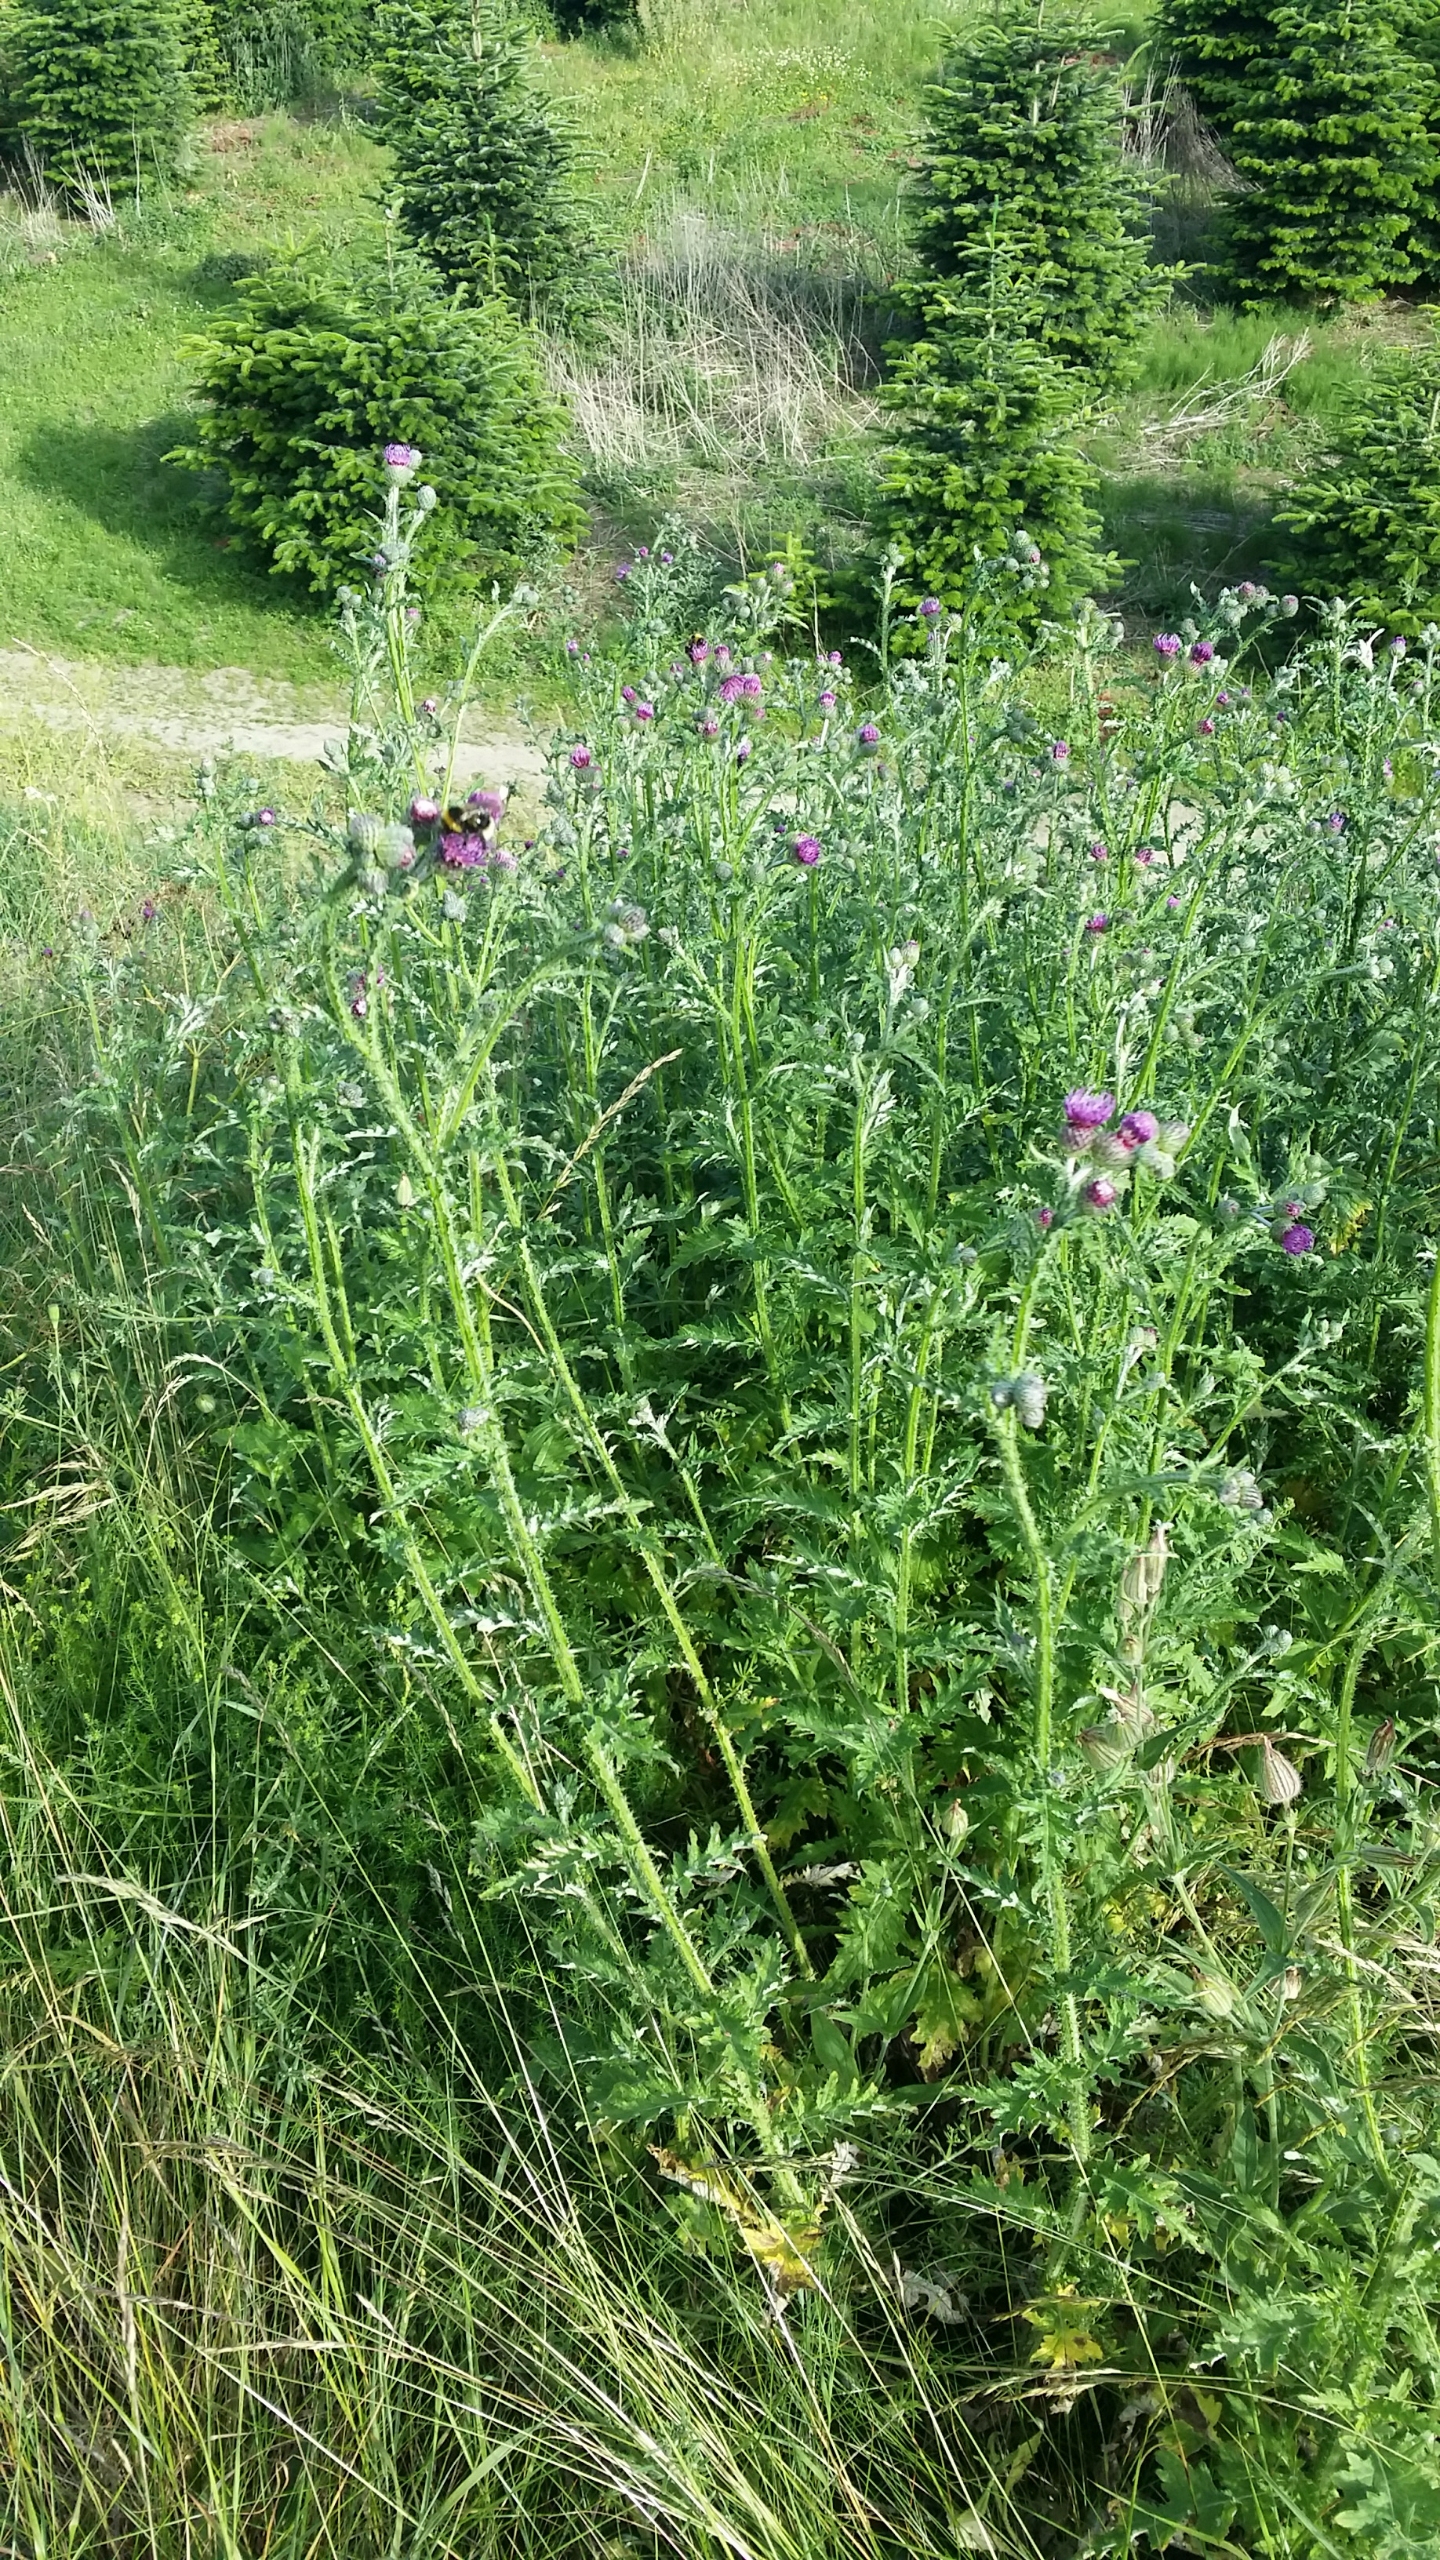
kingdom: Plantae
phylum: Tracheophyta
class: Magnoliopsida
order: Asterales
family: Asteraceae
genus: Carduus
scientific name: Carduus crispus
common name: Kruset tidsel
